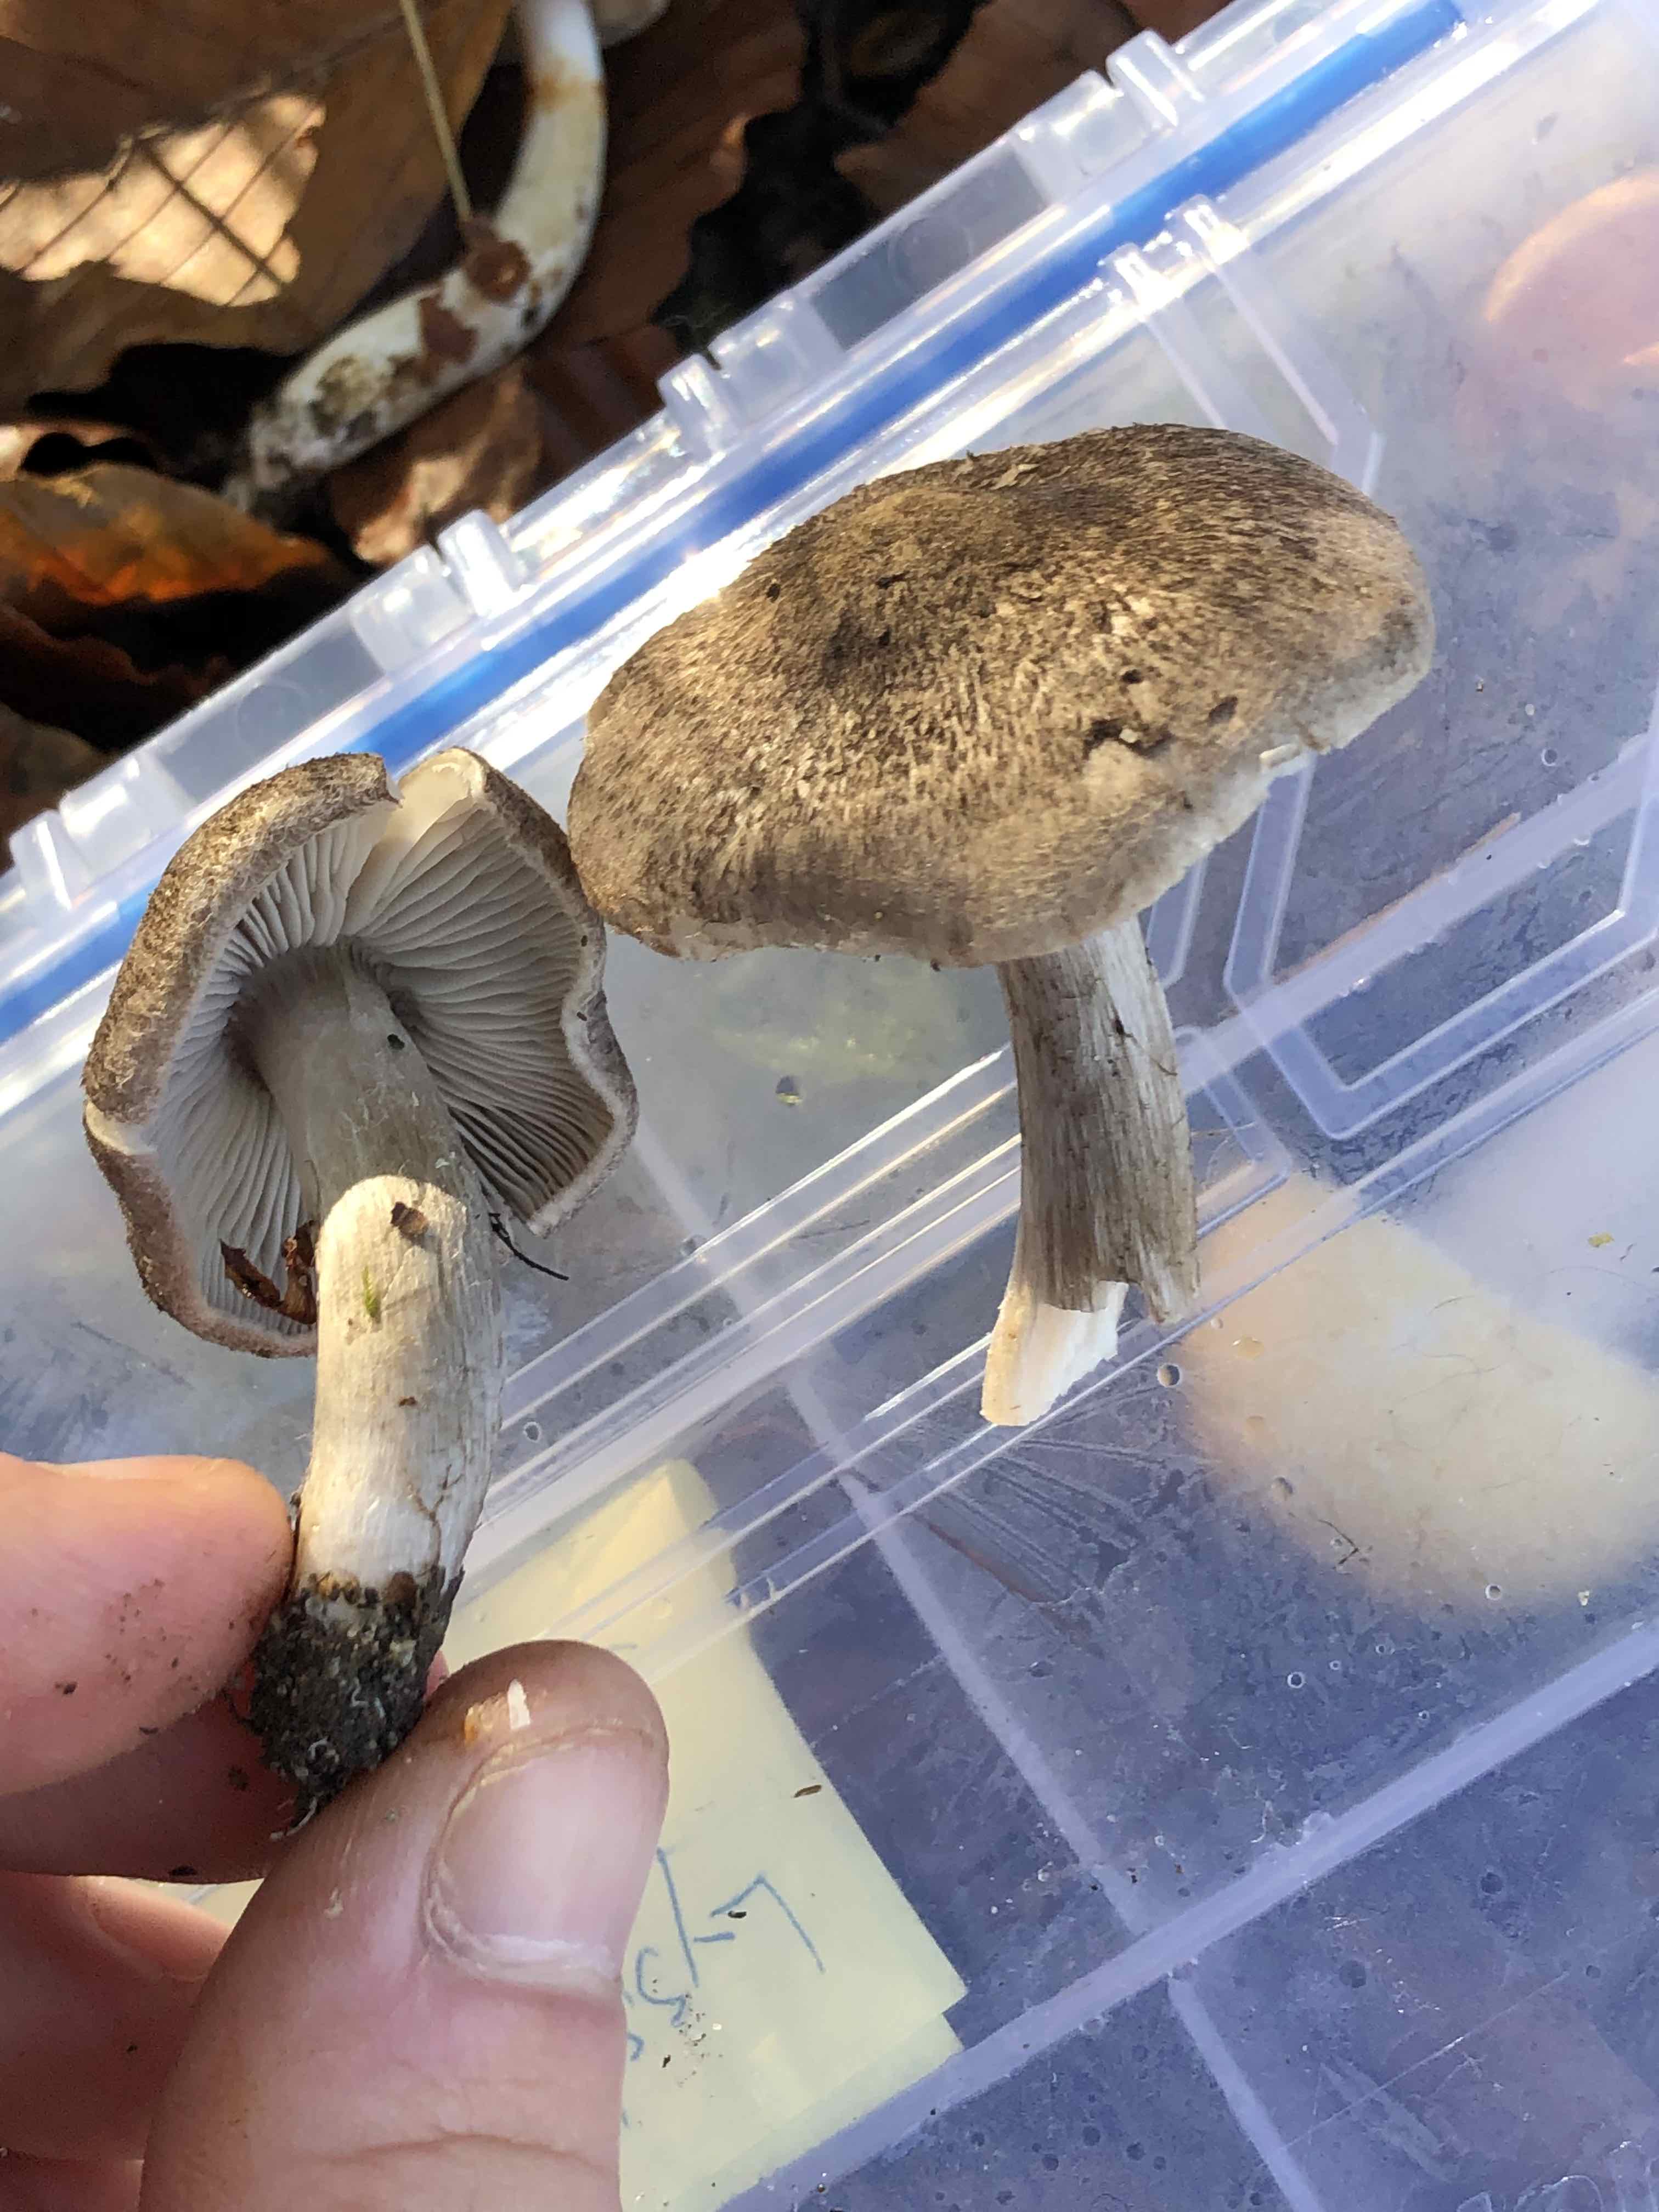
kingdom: Fungi
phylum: Basidiomycota
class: Agaricomycetes
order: Agaricales
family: Tricholomataceae
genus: Tricholoma
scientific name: Tricholoma atrosquamosum
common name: sortskællet ridderhat
